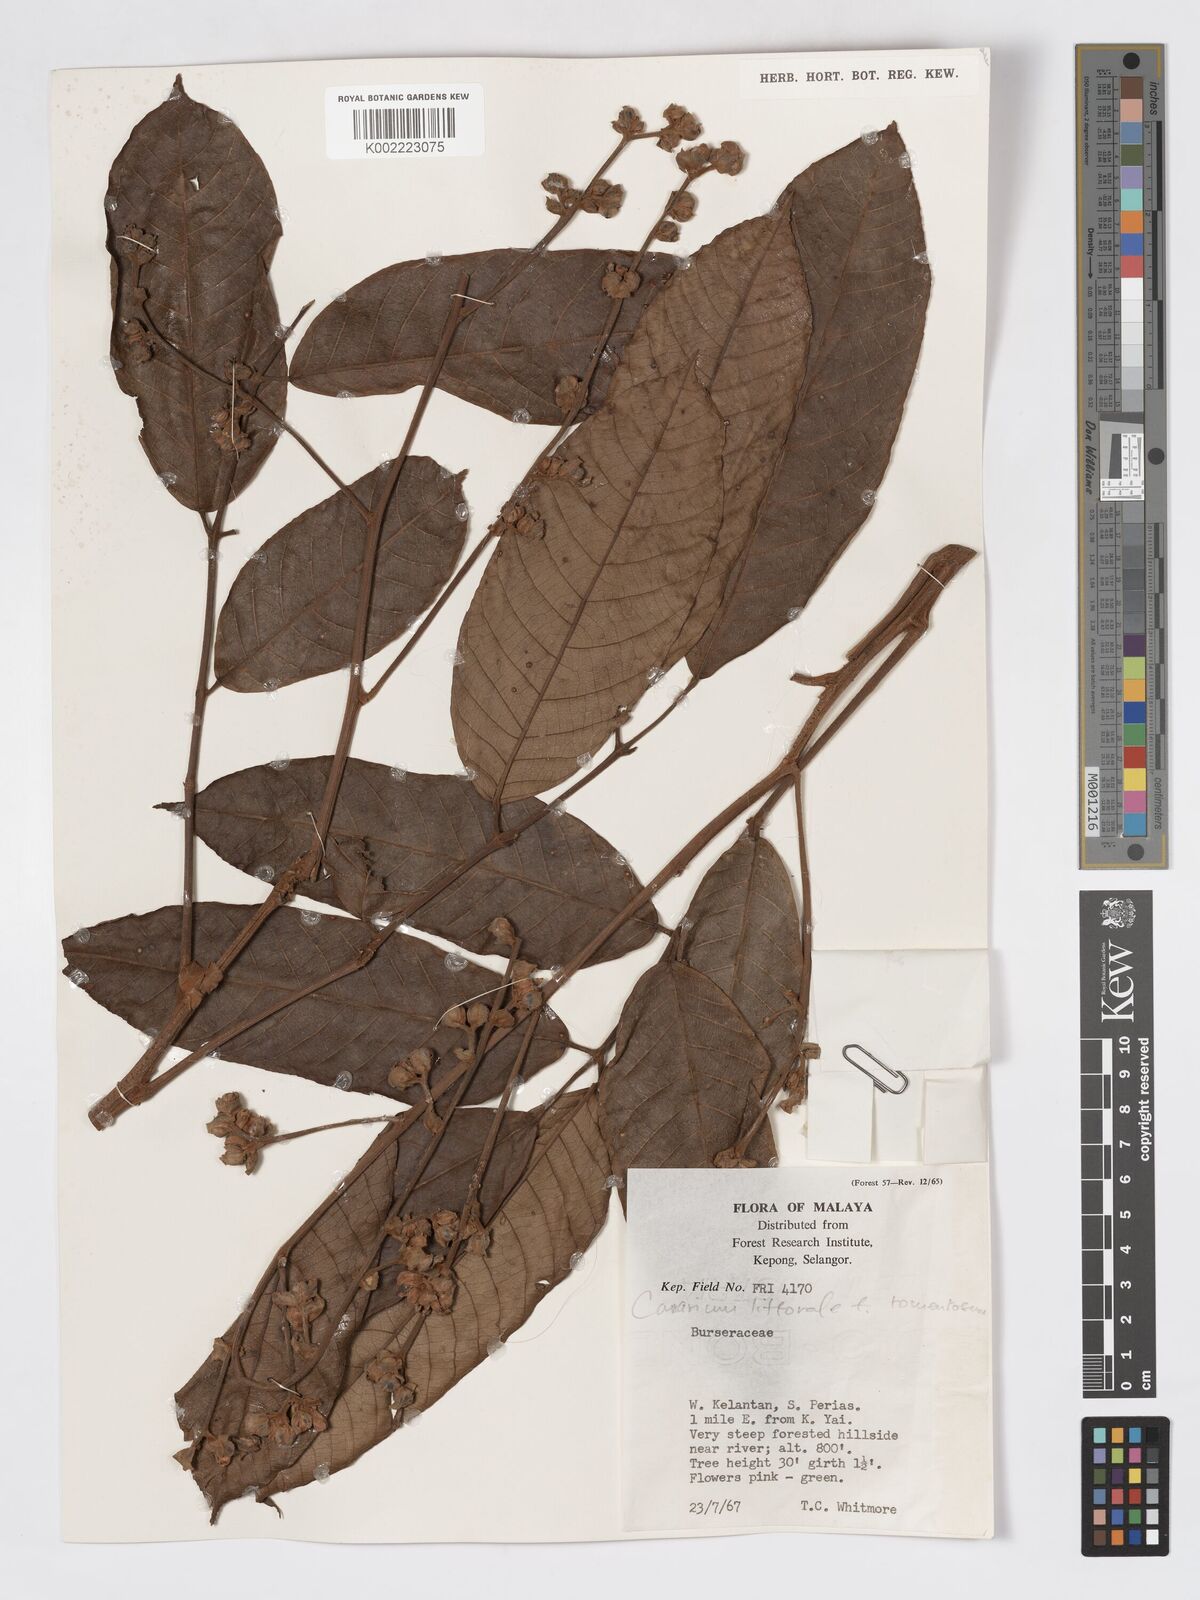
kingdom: Plantae
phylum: Tracheophyta
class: Magnoliopsida
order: Sapindales
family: Burseraceae
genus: Canarium
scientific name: Canarium littorale
